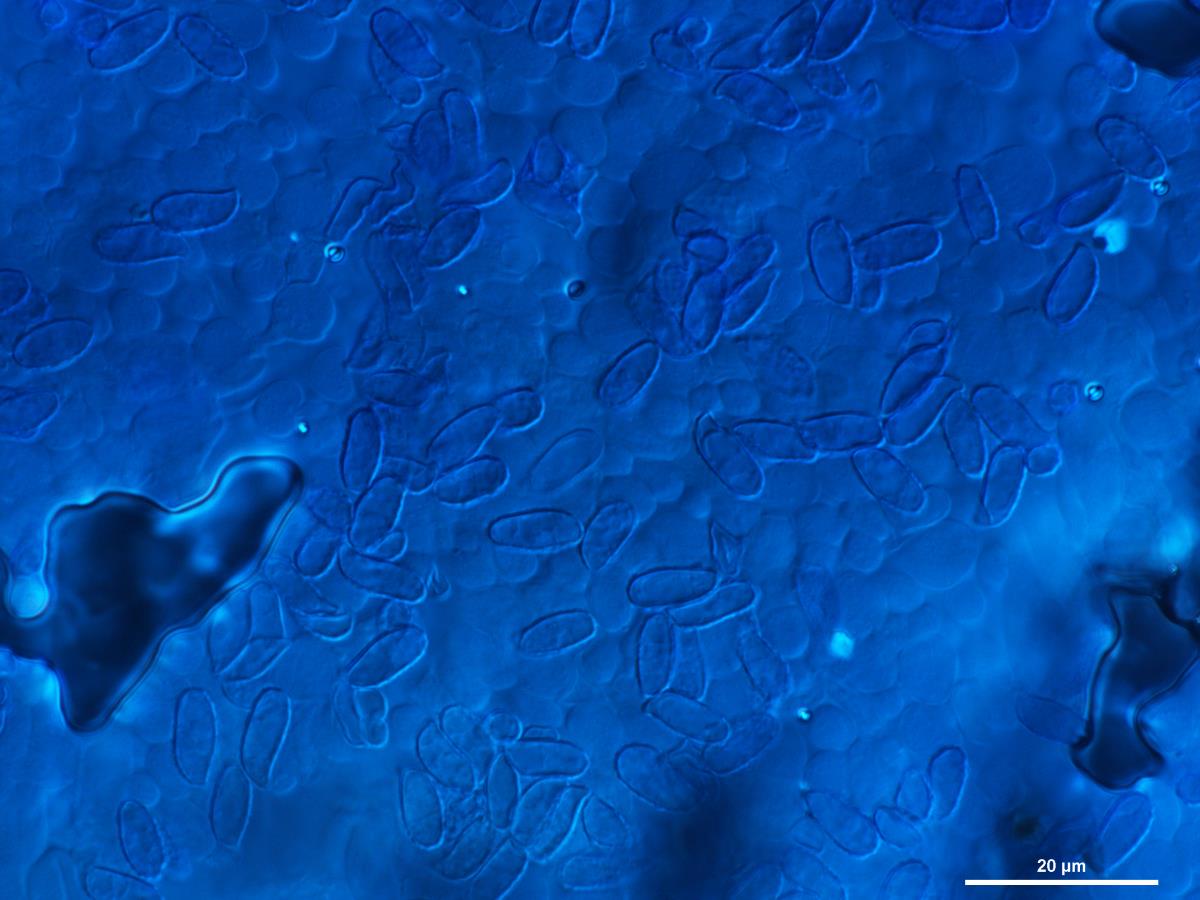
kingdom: Fungi
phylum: Basidiomycota
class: Agaricomycetes
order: Gomphales
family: Gomphaceae
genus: Ramaria
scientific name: Ramaria
